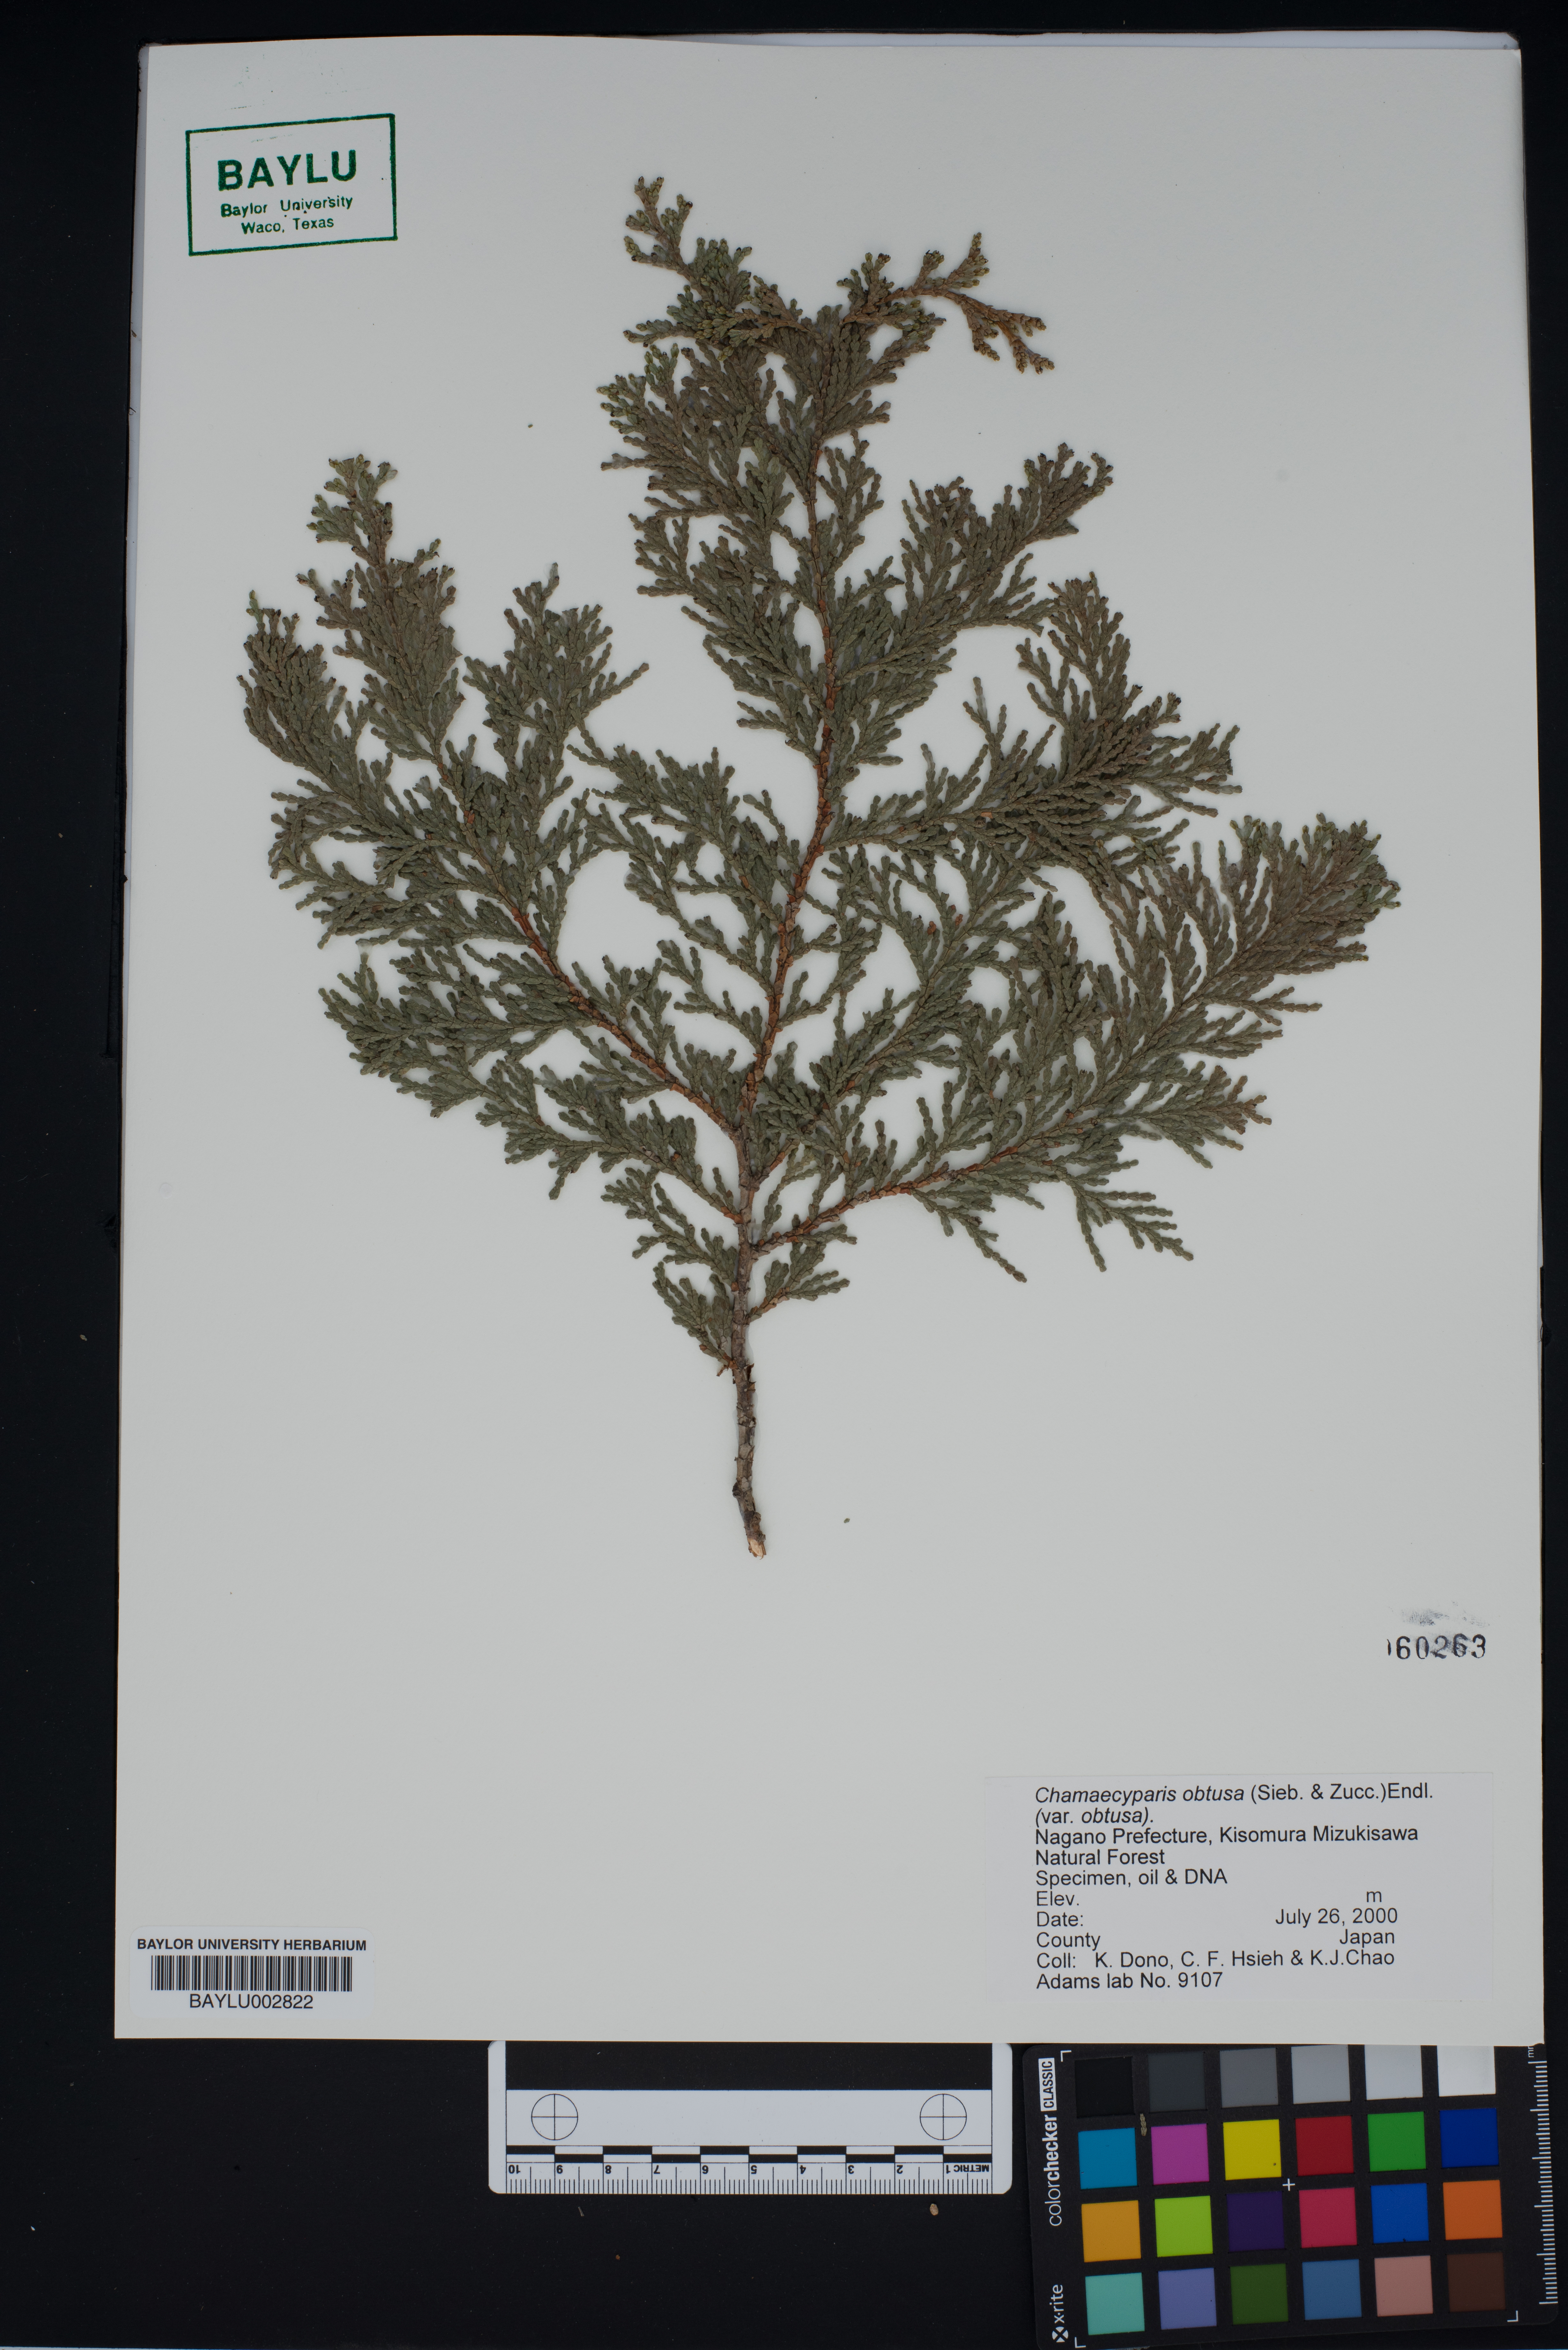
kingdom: Plantae
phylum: Tracheophyta
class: Pinopsida
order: Pinales
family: Cupressaceae
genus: Chamaecyparis
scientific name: Chamaecyparis obtusa
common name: Hinoki false cypress
